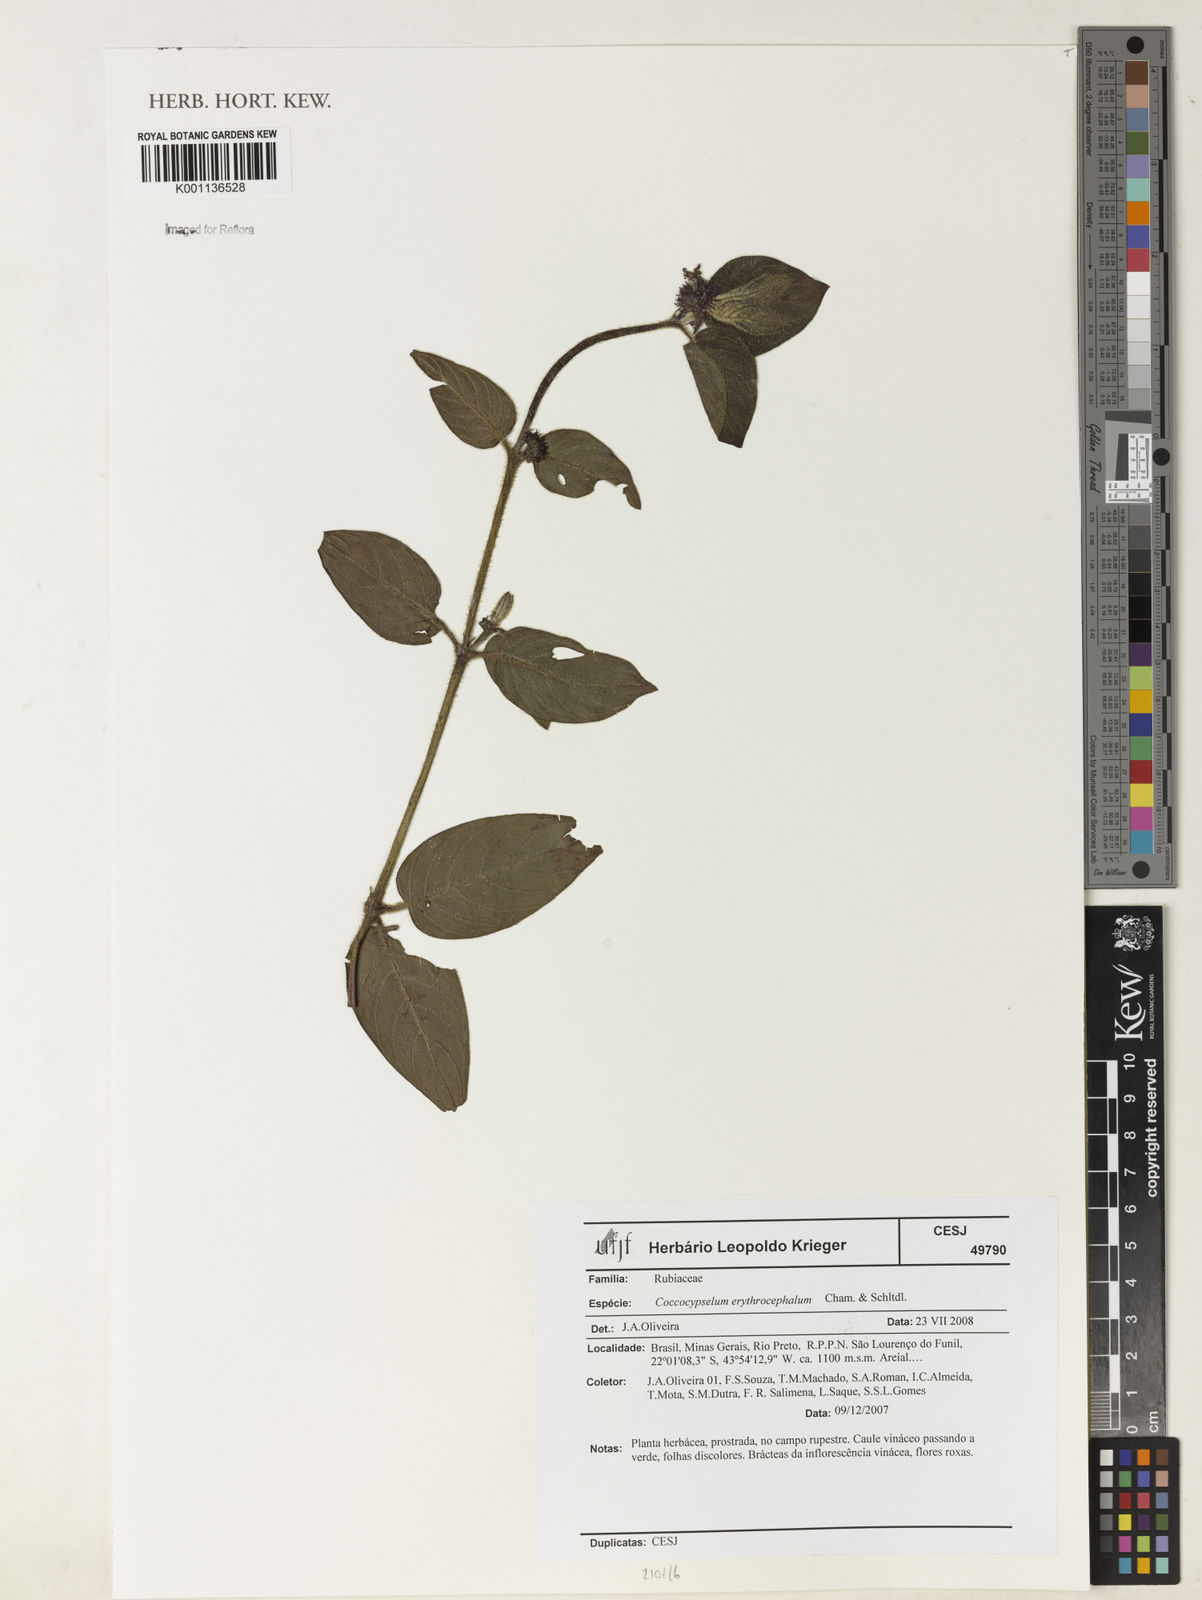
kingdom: Plantae
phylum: Tracheophyta
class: Magnoliopsida
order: Gentianales
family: Rubiaceae
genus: Coccocypselum
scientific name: Coccocypselum erythrocephalum
